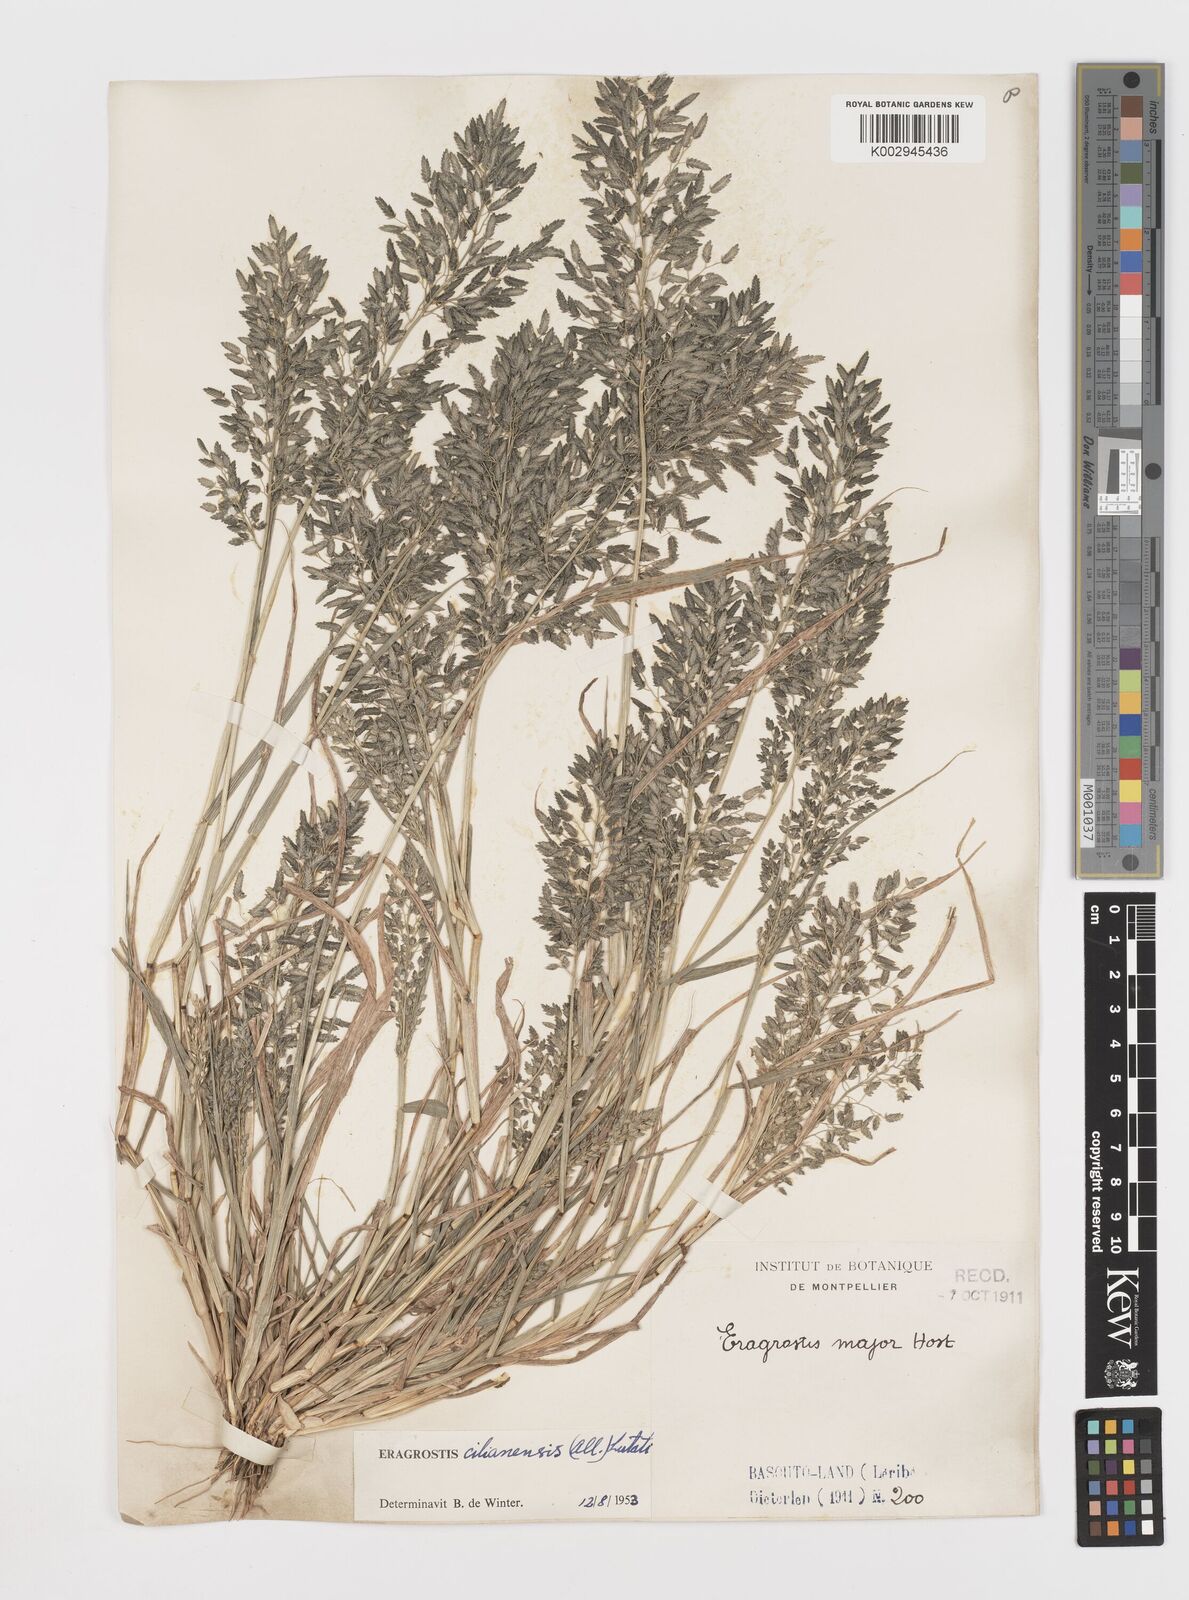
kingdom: Plantae
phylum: Tracheophyta
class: Liliopsida
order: Poales
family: Poaceae
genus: Eragrostis
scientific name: Eragrostis cilianensis
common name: Stinkgrass
